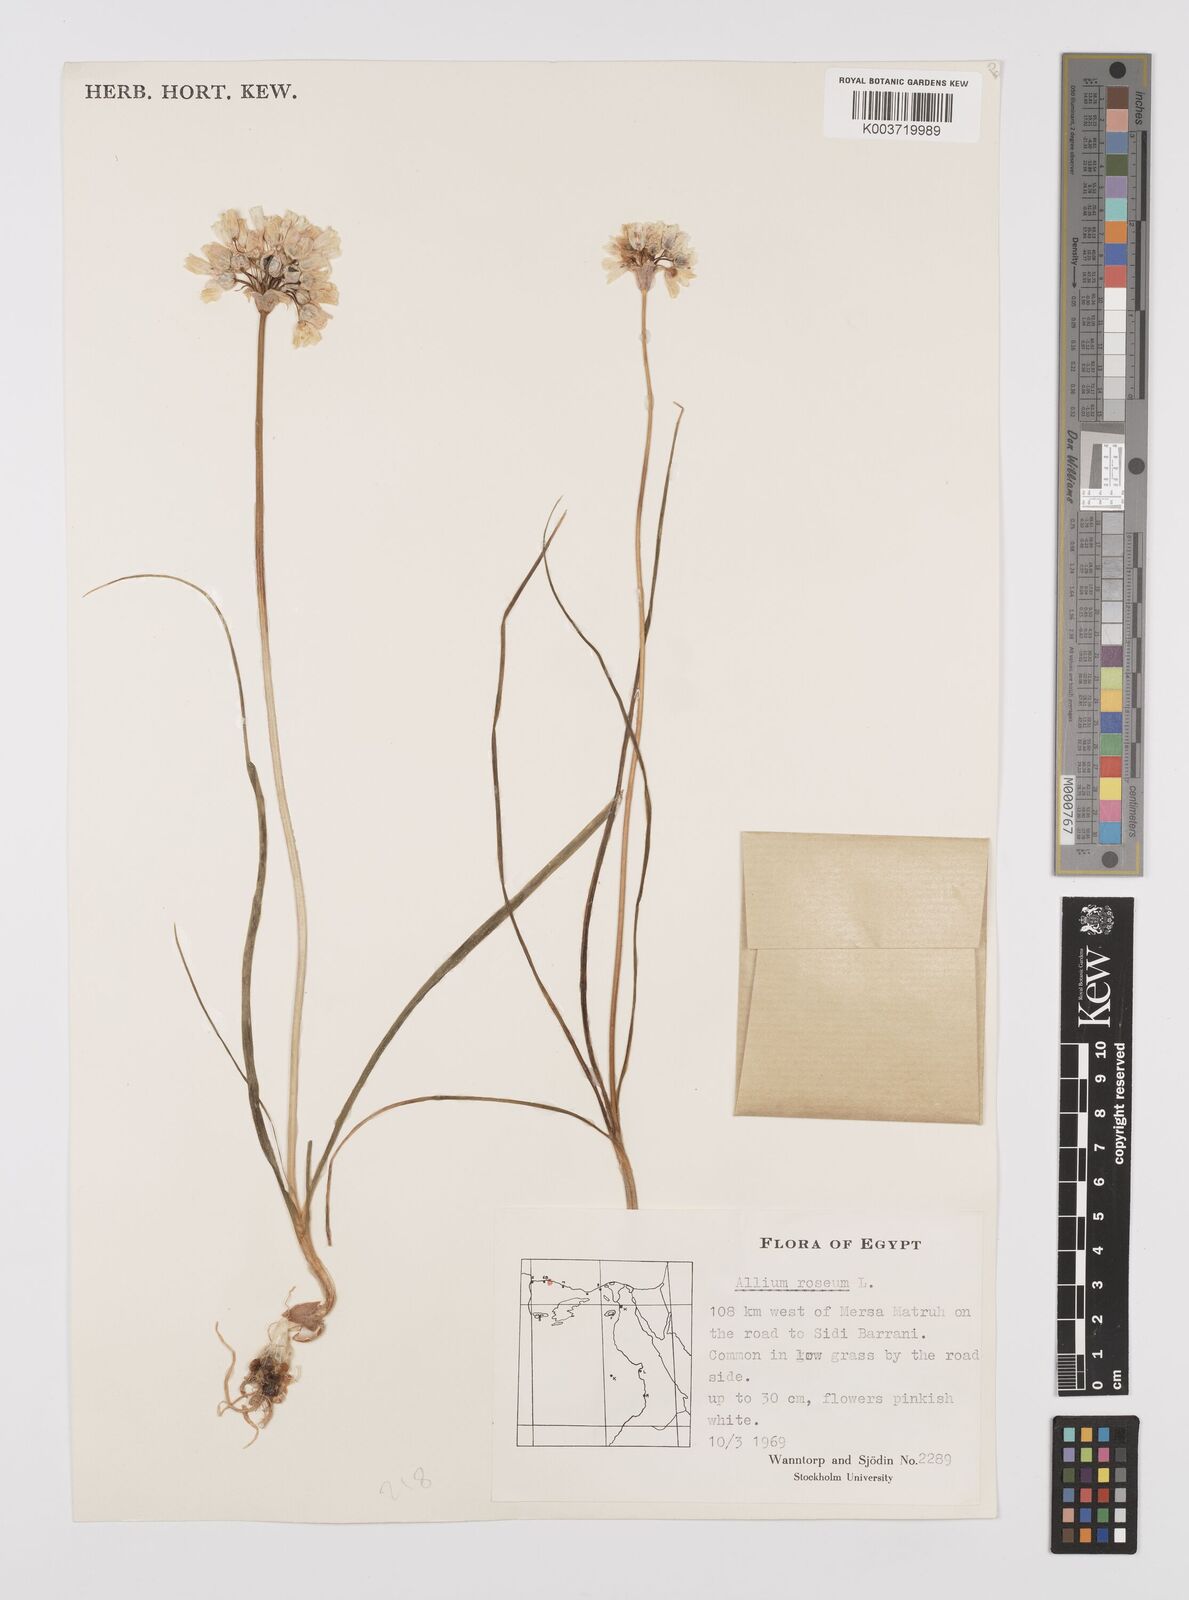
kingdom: Plantae
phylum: Tracheophyta
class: Liliopsida
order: Asparagales
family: Amaryllidaceae
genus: Allium
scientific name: Allium roseum
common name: Rosy garlic
